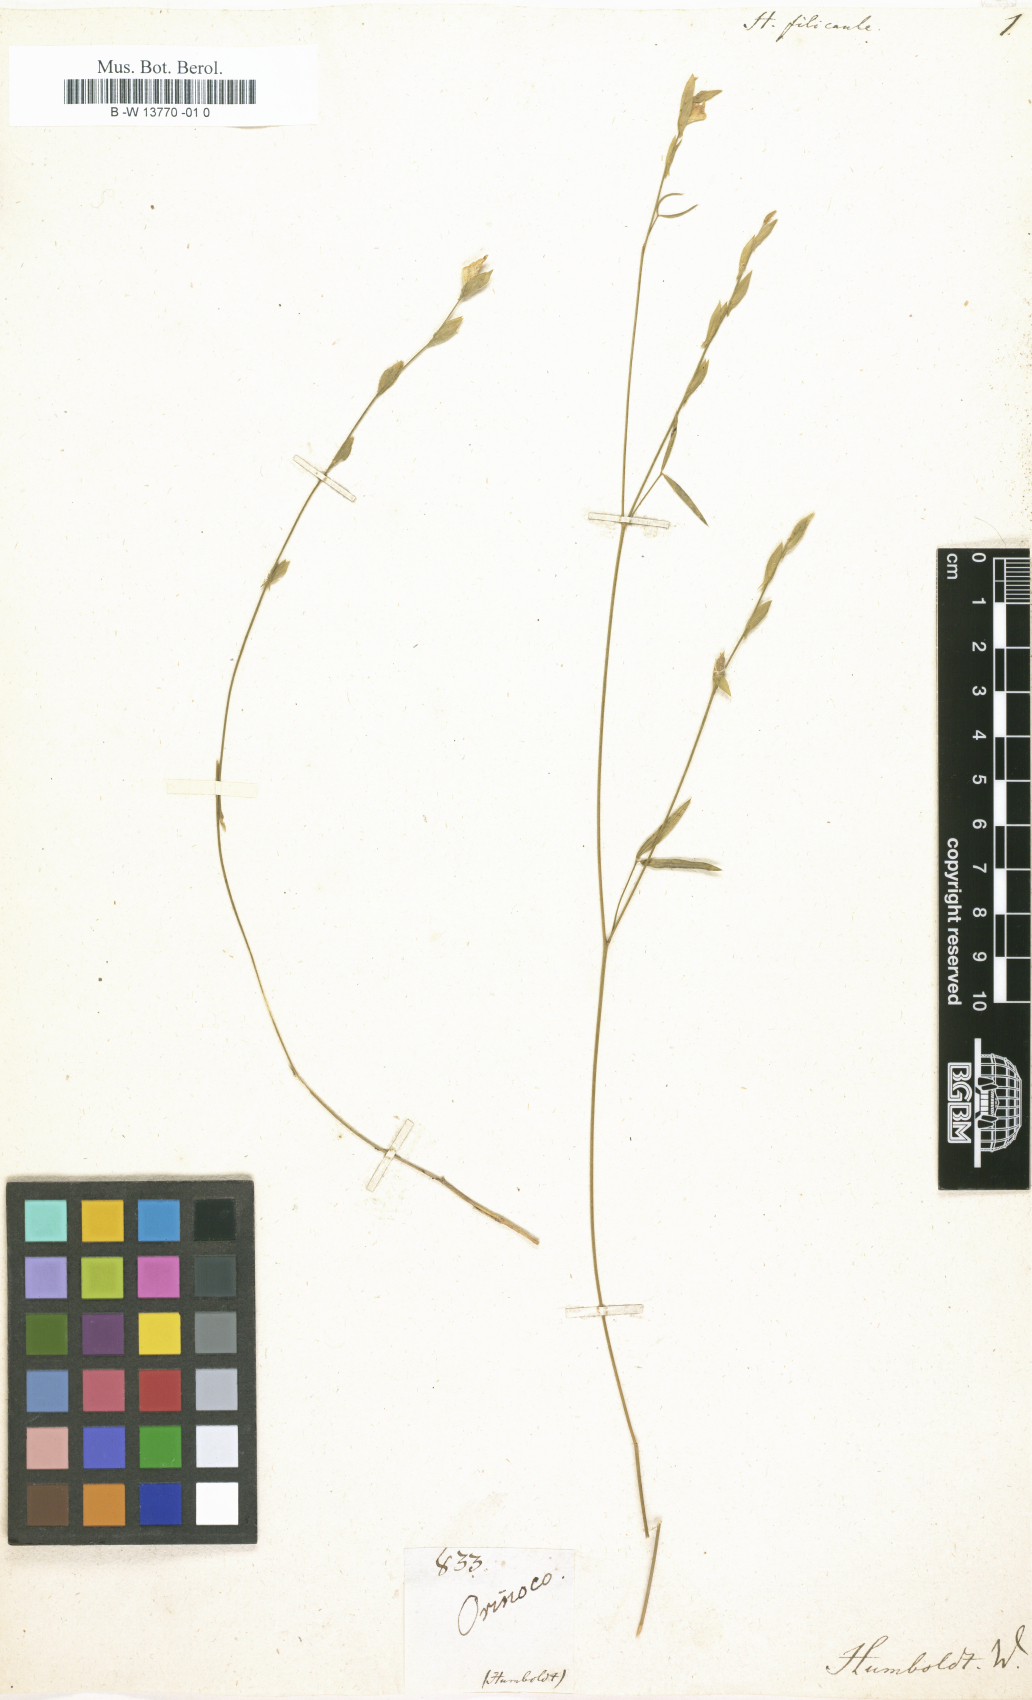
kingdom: Plantae
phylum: Tracheophyta
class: Magnoliopsida
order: Fabales
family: Fabaceae
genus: Hedysarum
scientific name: Hedysarum
